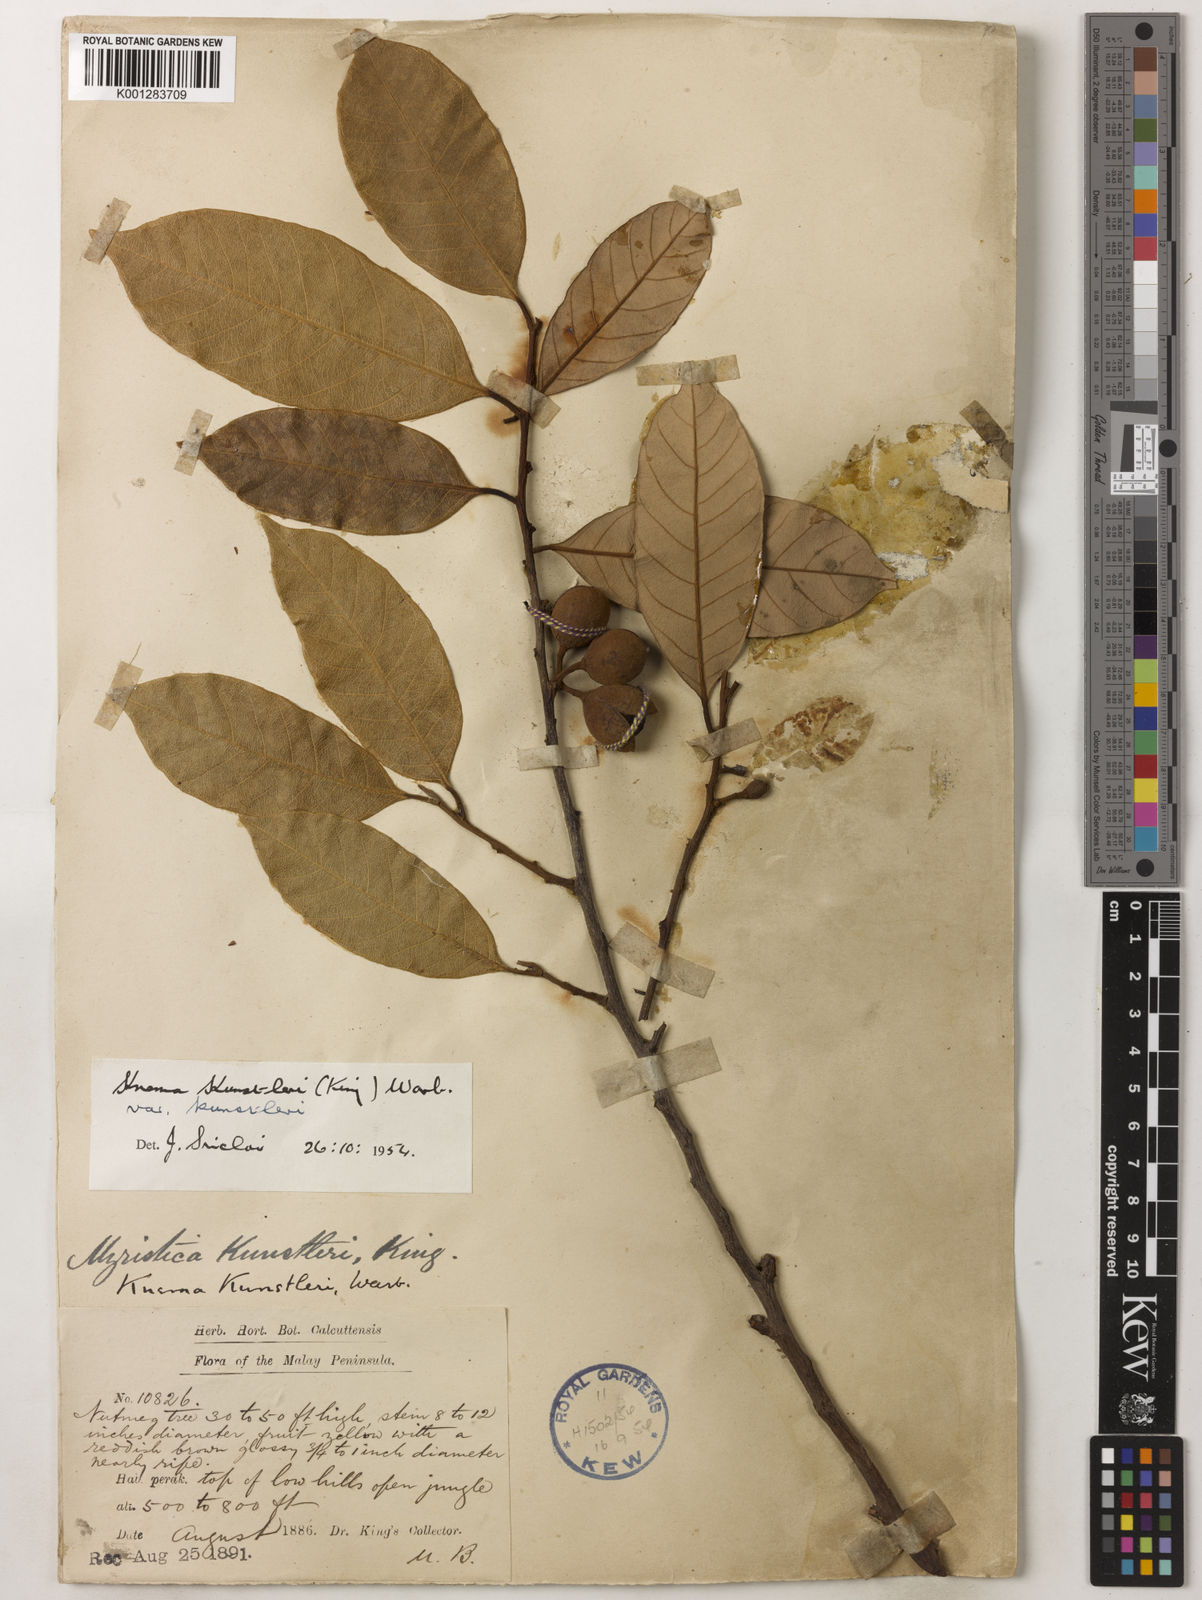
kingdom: Plantae
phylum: Tracheophyta
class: Magnoliopsida
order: Magnoliales
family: Myristicaceae
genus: Knema
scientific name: Knema kunstleri
